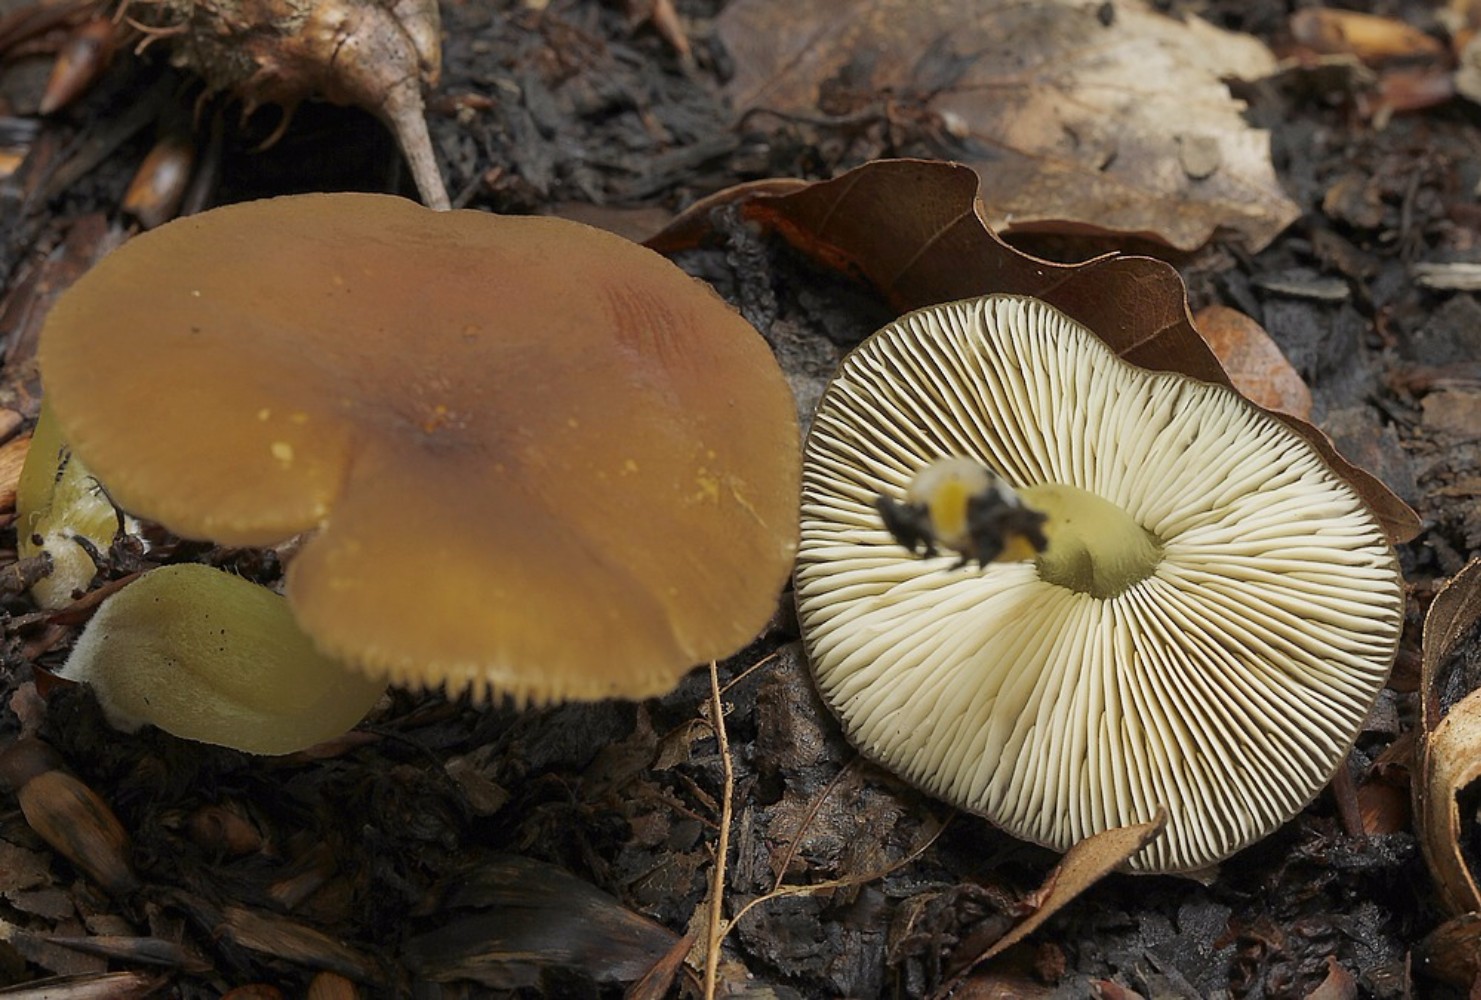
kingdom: Fungi
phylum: Basidiomycota
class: Agaricomycetes
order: Agaricales
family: Pluteaceae
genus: Pluteus
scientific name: Pluteus romellii
